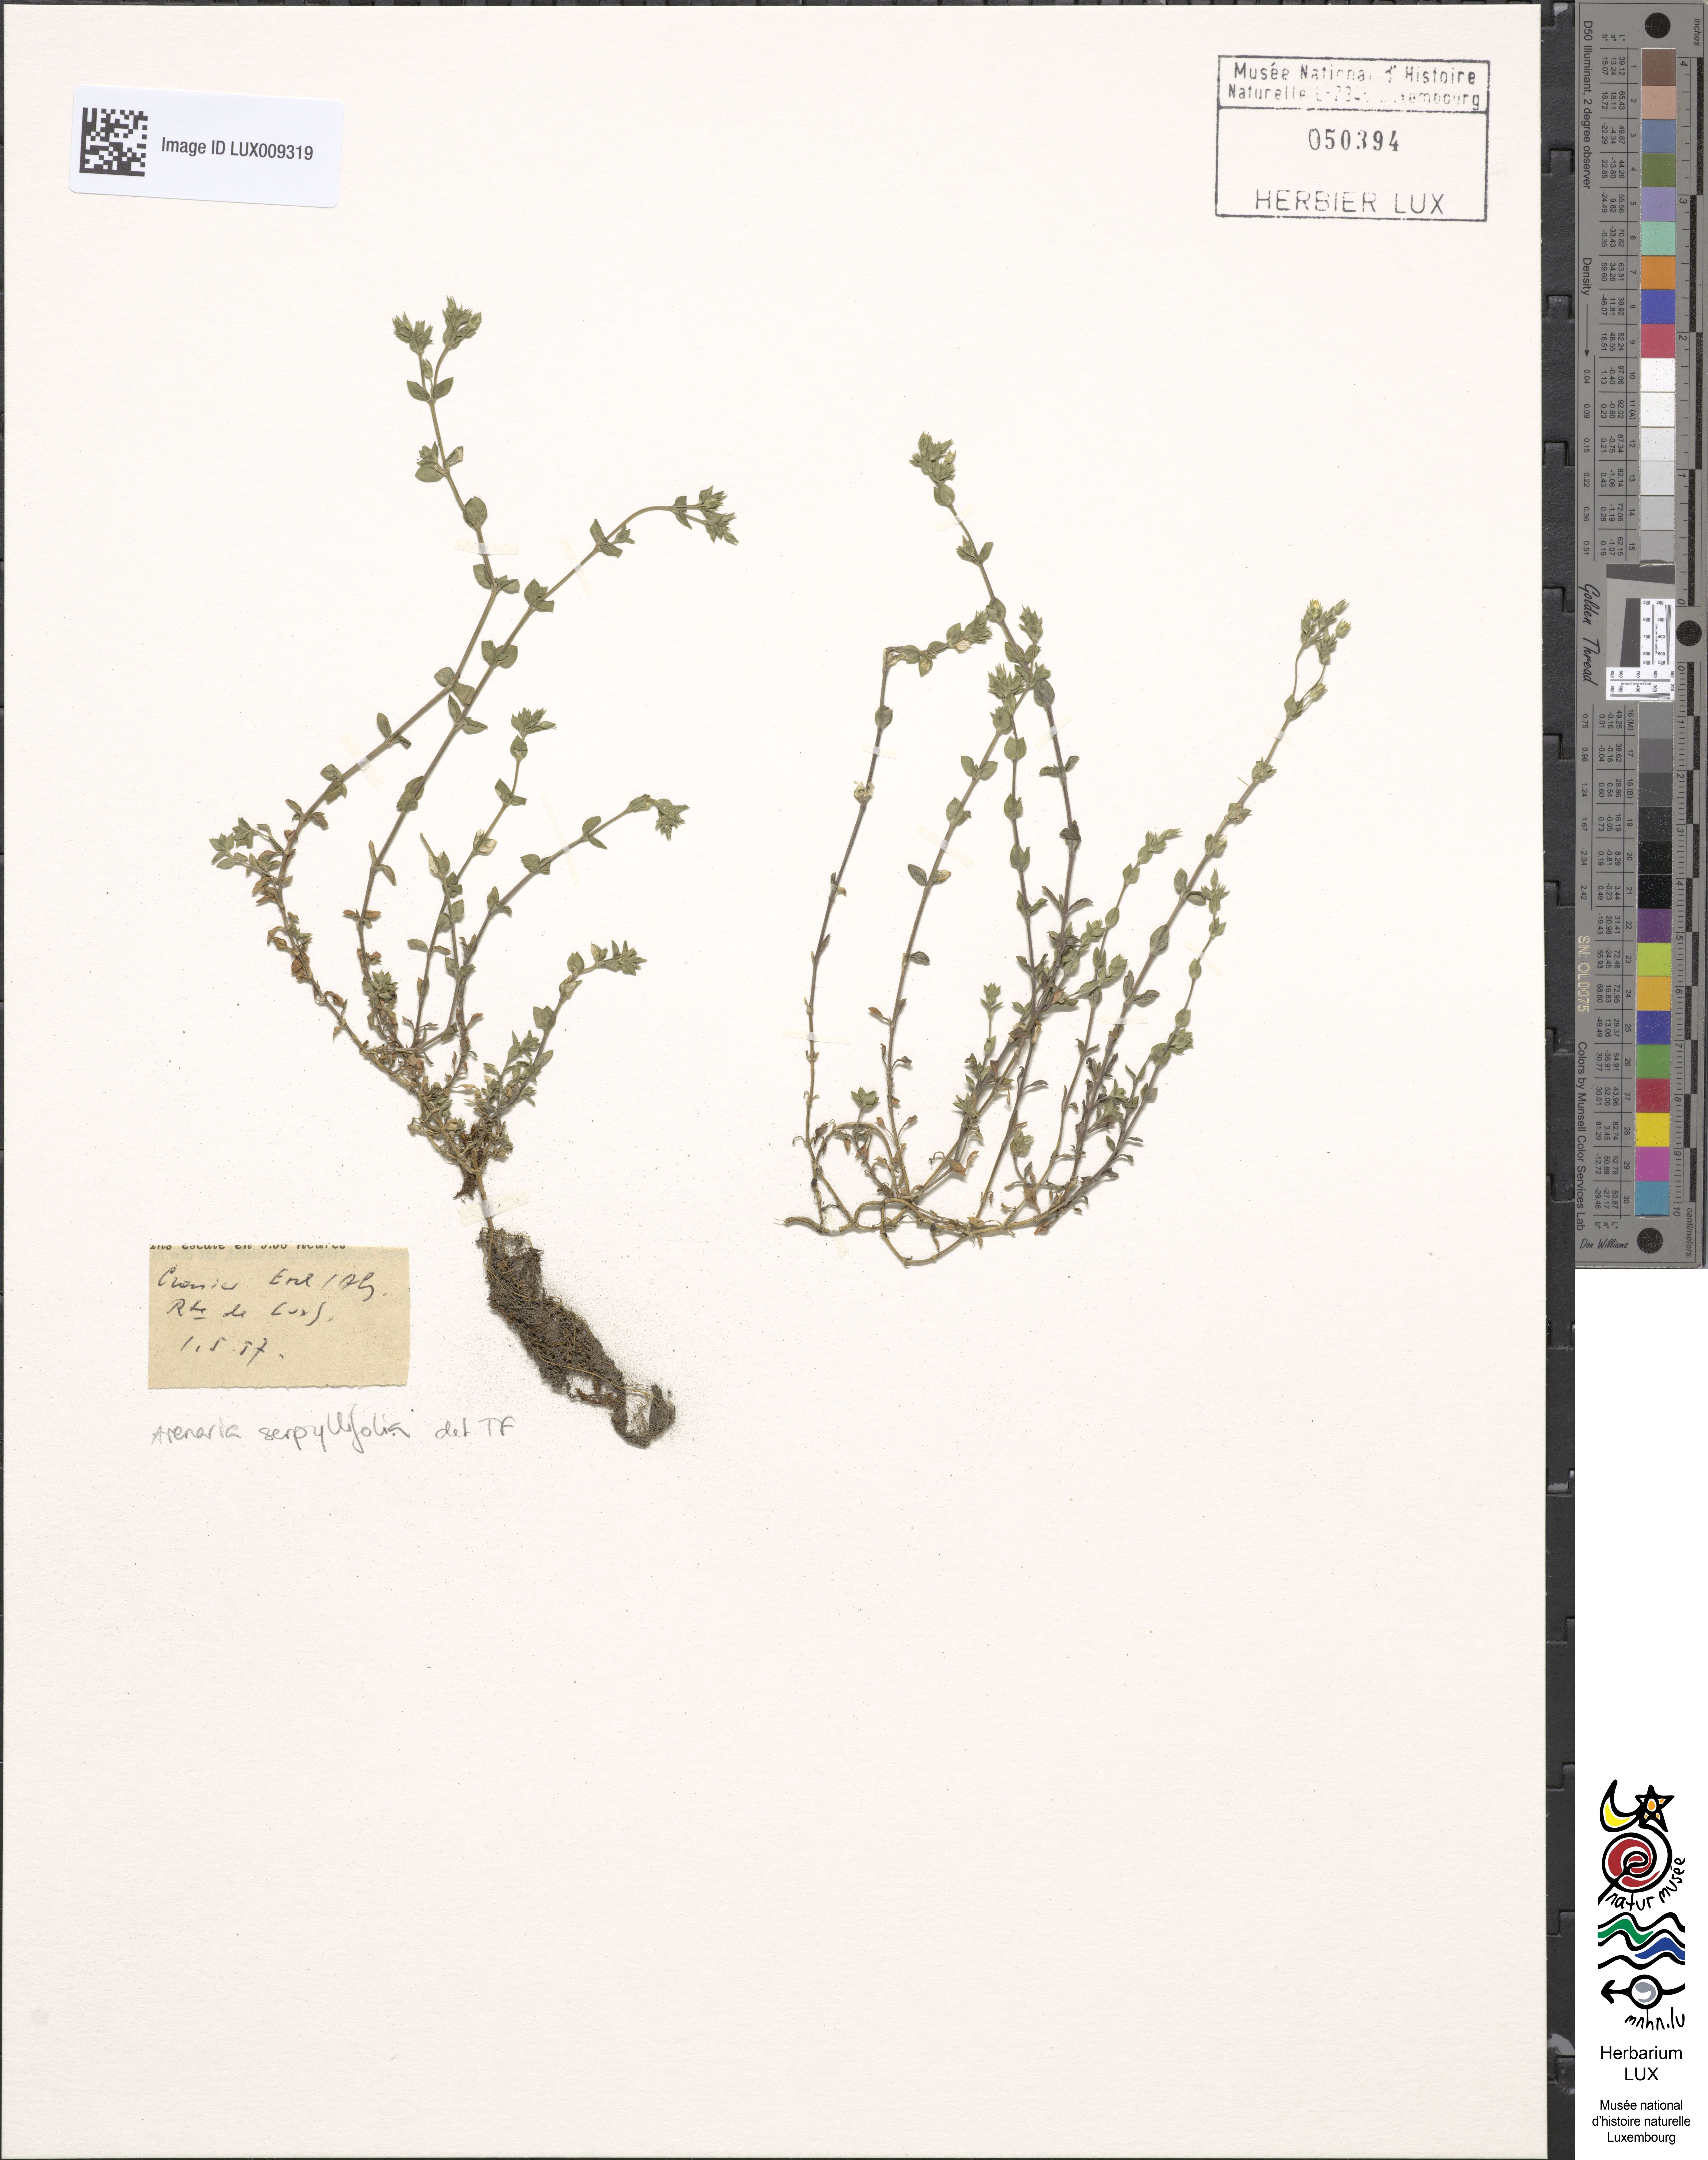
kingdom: Plantae
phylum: Tracheophyta
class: Magnoliopsida
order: Caryophyllales
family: Caryophyllaceae
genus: Arenaria
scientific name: Arenaria serpyllifolia
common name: Thyme-leaved sandwort
